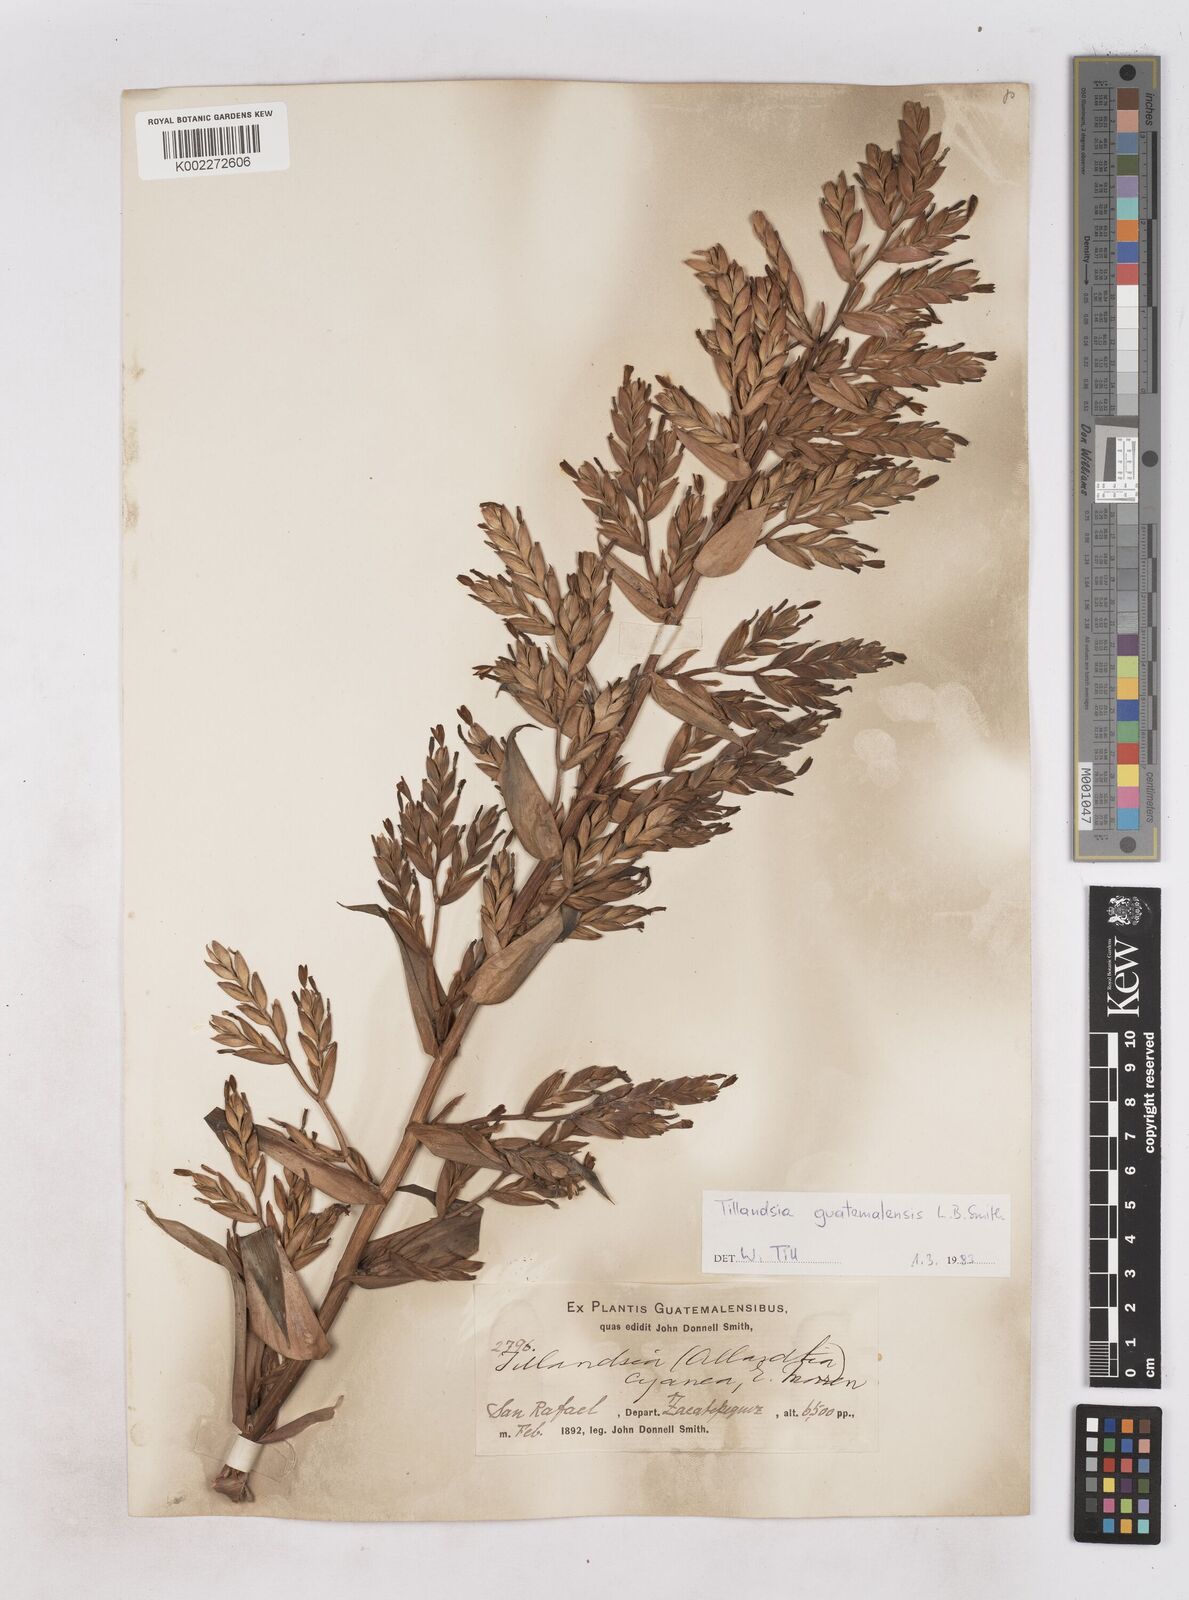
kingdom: Plantae
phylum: Tracheophyta
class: Liliopsida
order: Poales
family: Bromeliaceae
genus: Tillandsia
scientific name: Tillandsia guatemalensis
